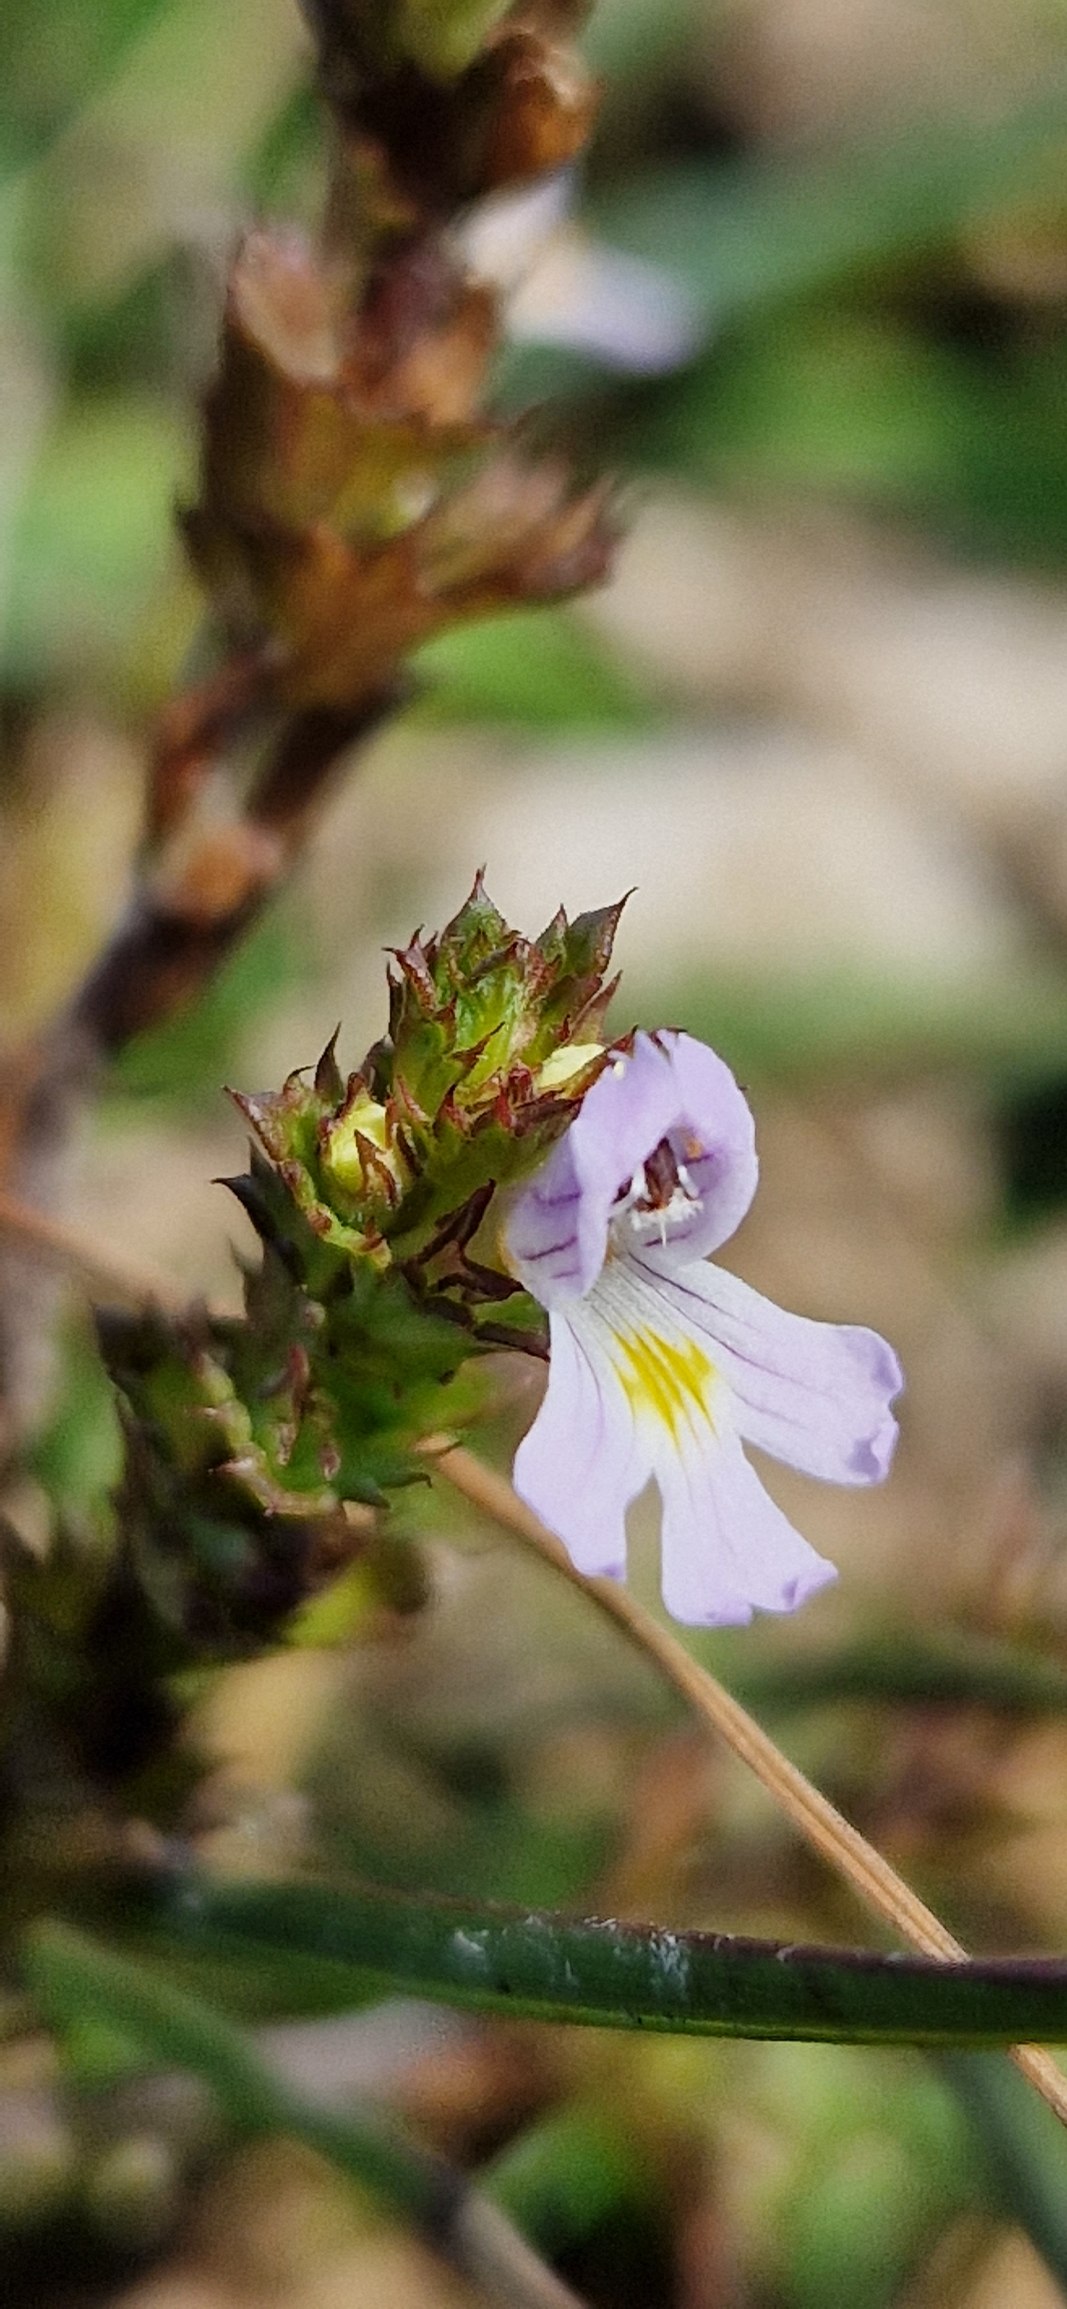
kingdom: Plantae
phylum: Tracheophyta
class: Magnoliopsida
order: Lamiales
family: Orobanchaceae
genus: Euphrasia
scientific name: Euphrasia stricta
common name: Spids øjentrøst
